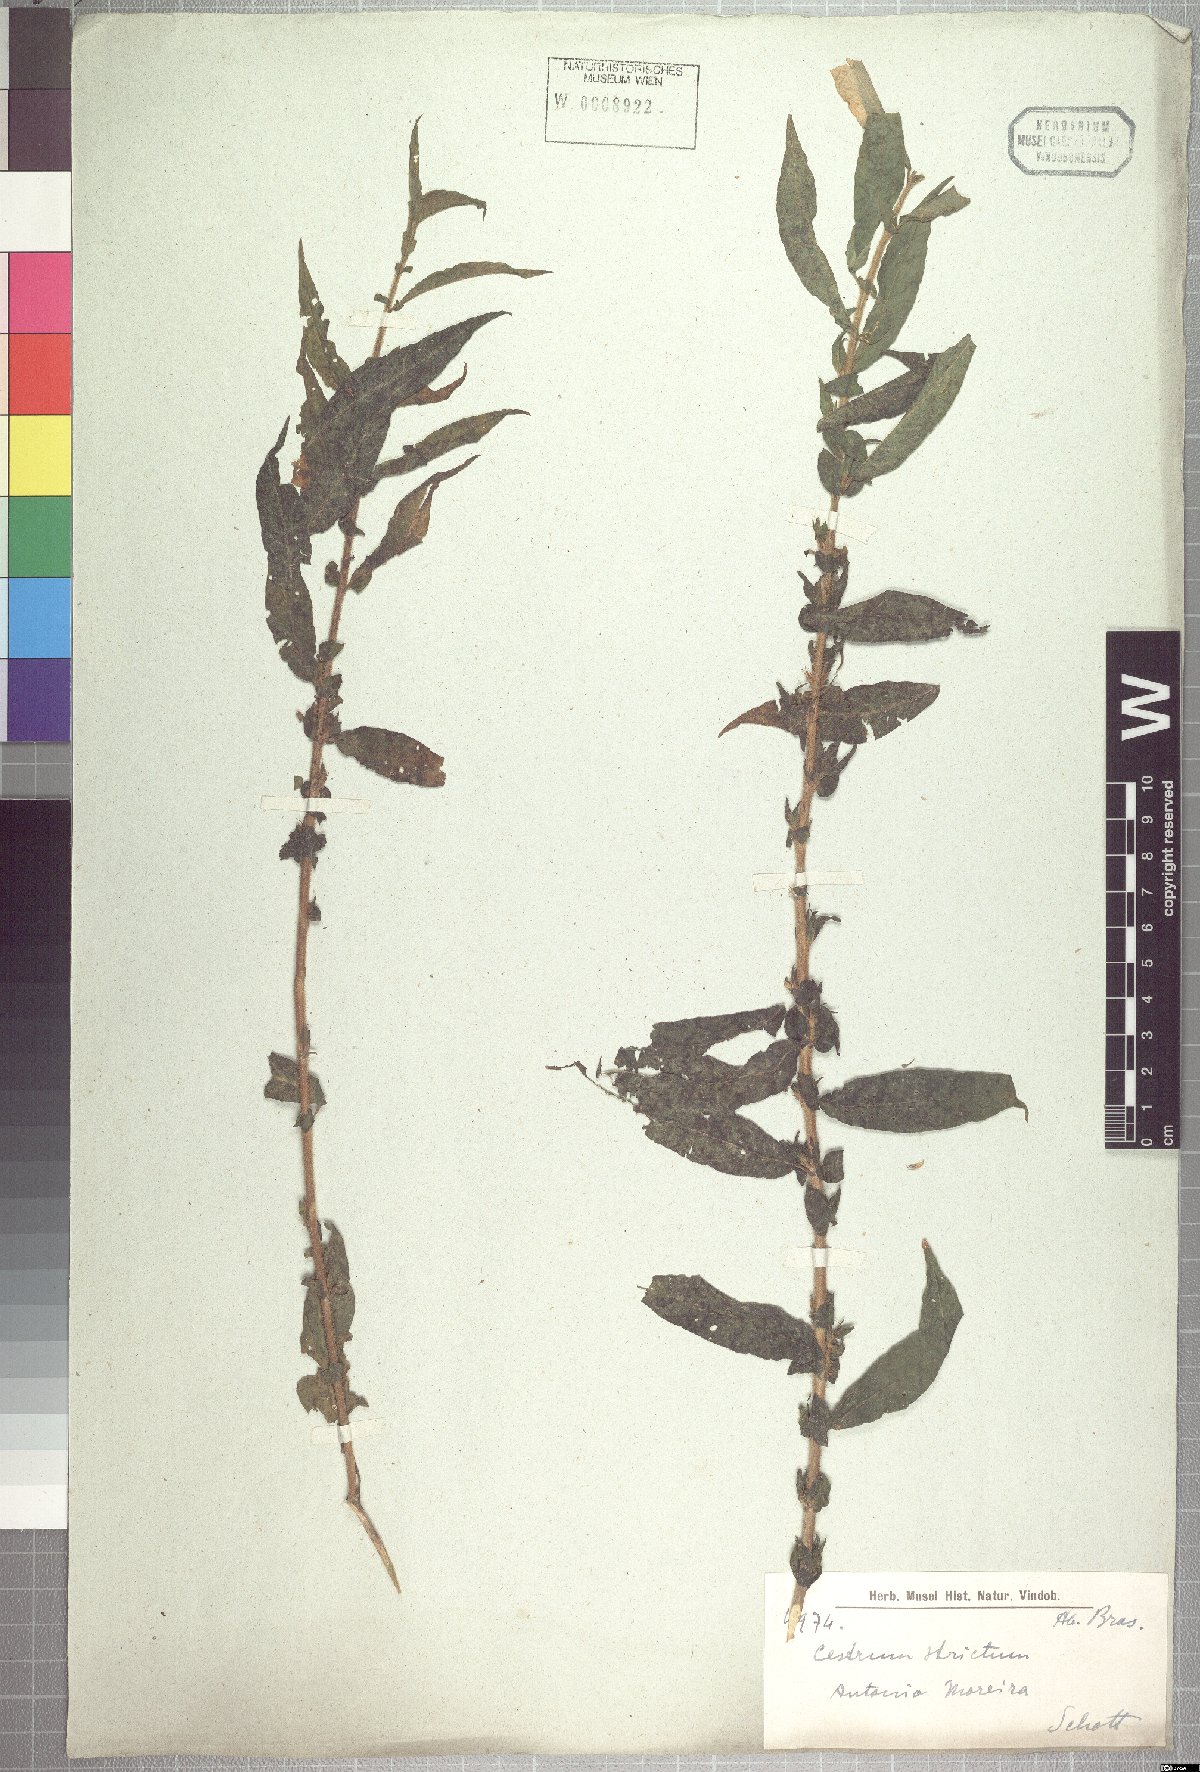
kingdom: Plantae
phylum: Tracheophyta
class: Magnoliopsida
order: Solanales
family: Solanaceae
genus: Cestrum
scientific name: Cestrum strictum
